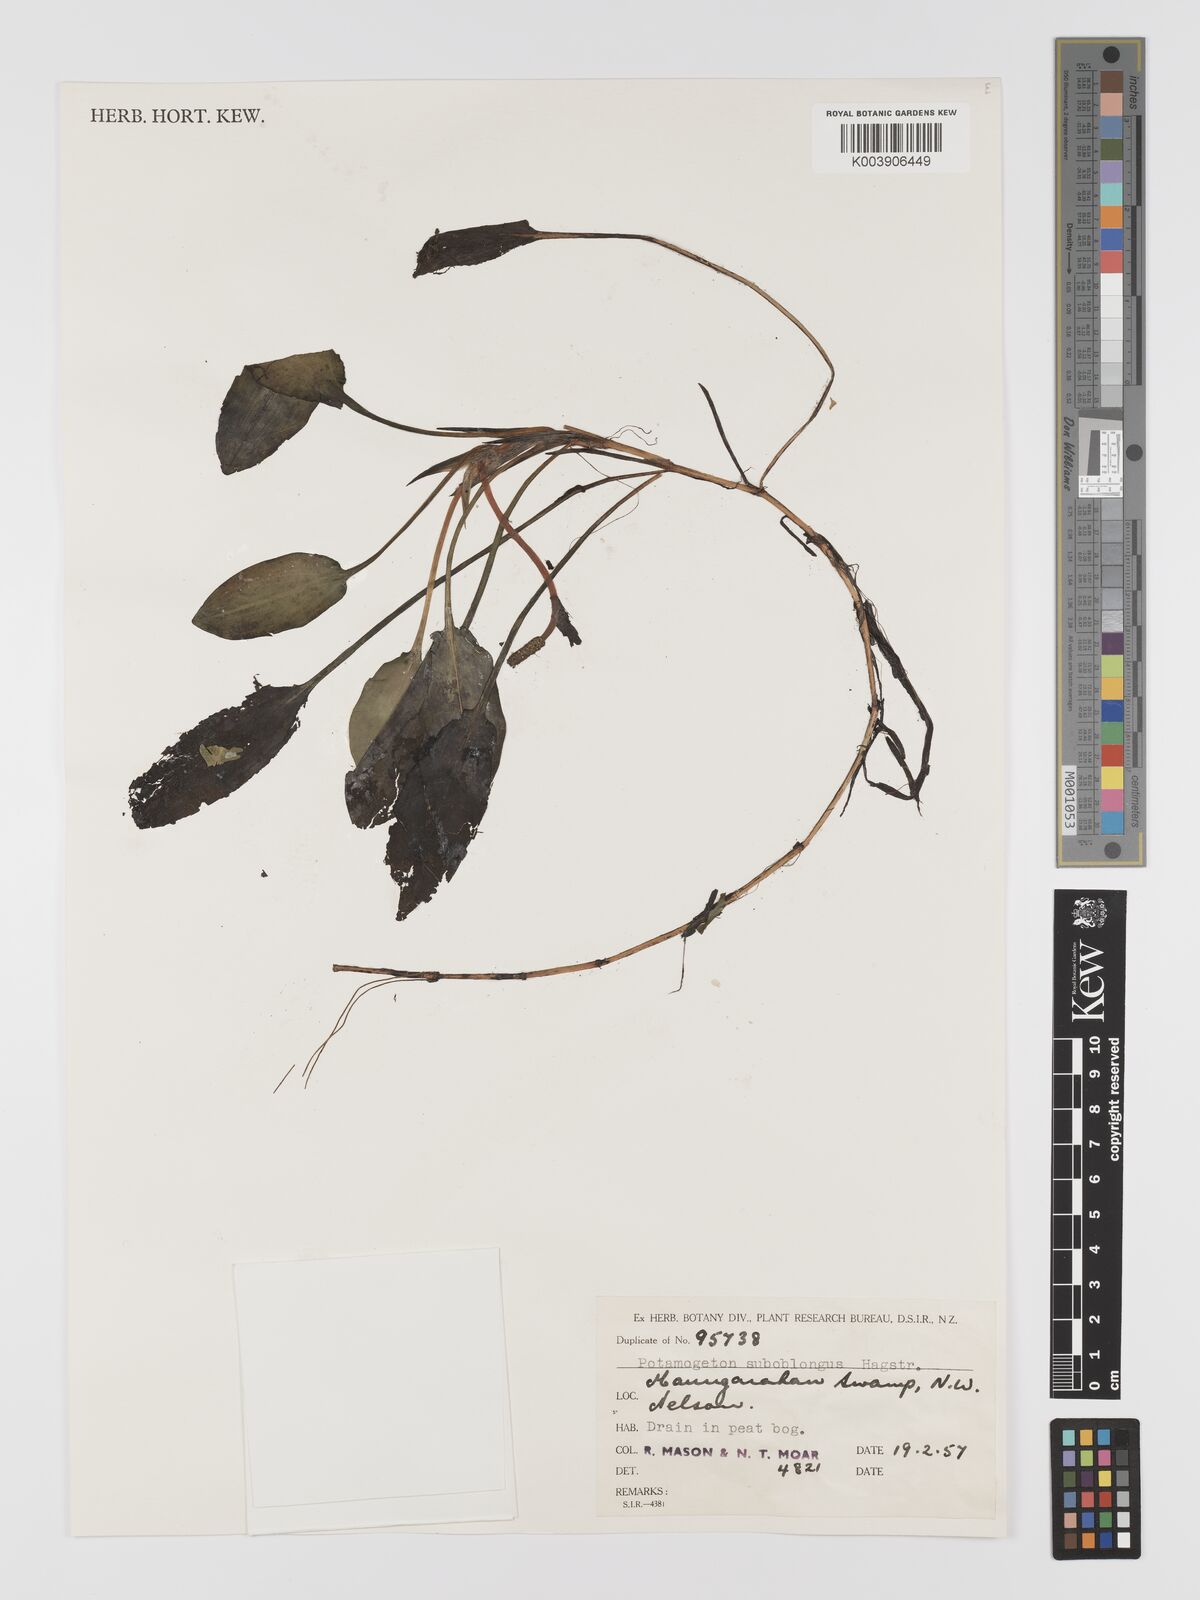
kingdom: Plantae
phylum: Tracheophyta
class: Liliopsida
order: Alismatales
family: Potamogetonaceae
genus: Potamogeton
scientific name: Potamogeton suboblongus
